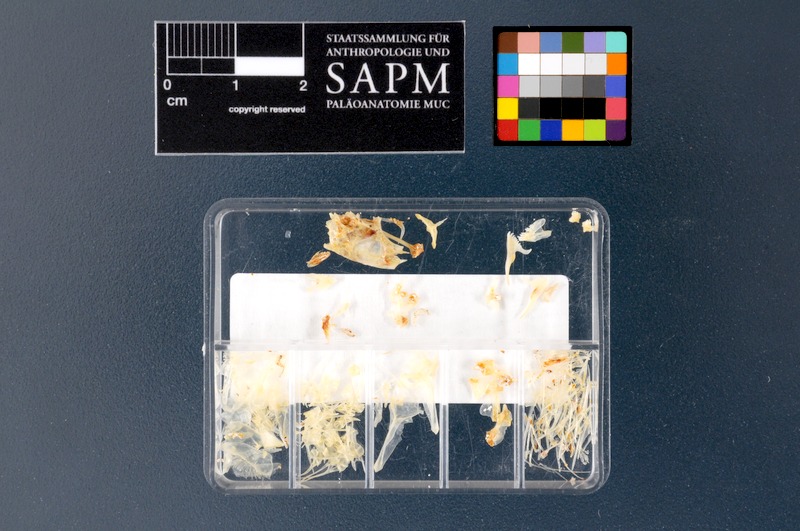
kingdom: Animalia
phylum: Chordata
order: Perciformes
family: Labridae
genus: Thalassoma
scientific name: Thalassoma pavo
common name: Ornate wrasse
